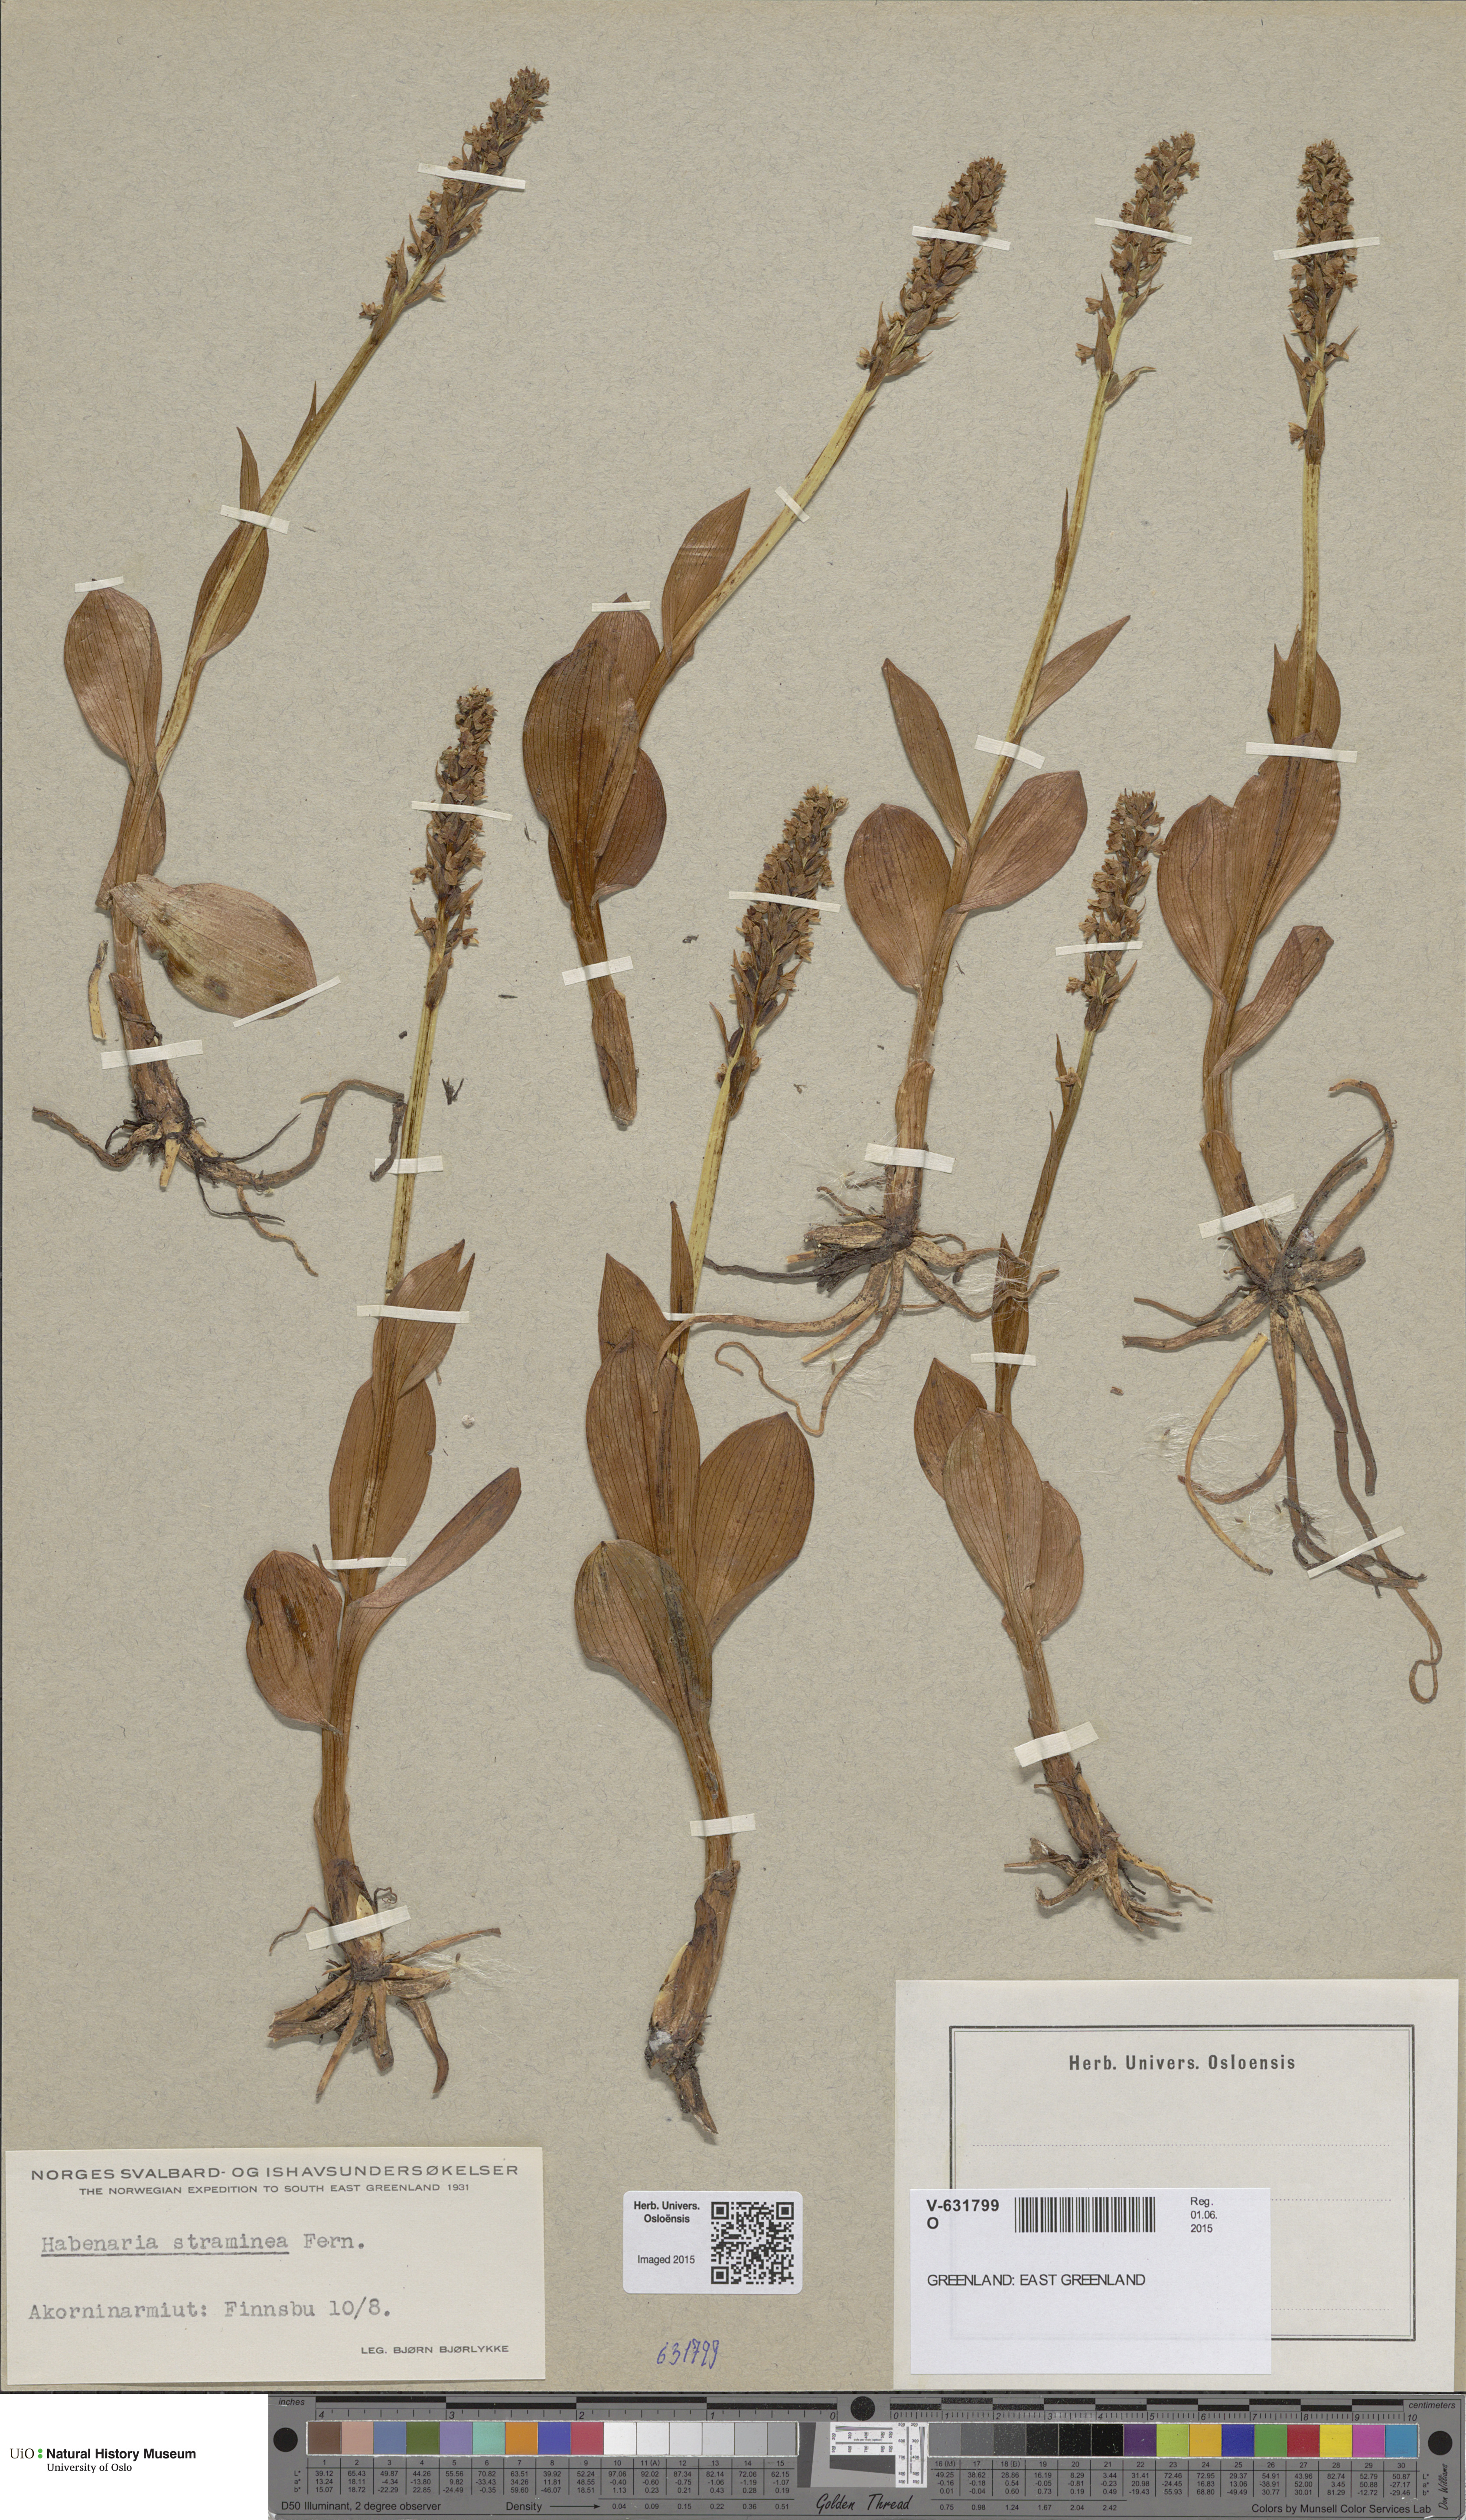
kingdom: Plantae
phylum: Tracheophyta
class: Liliopsida
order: Asparagales
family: Orchidaceae
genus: Pseudorchis
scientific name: Pseudorchis straminea
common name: Vanilla-scented bog orchid
